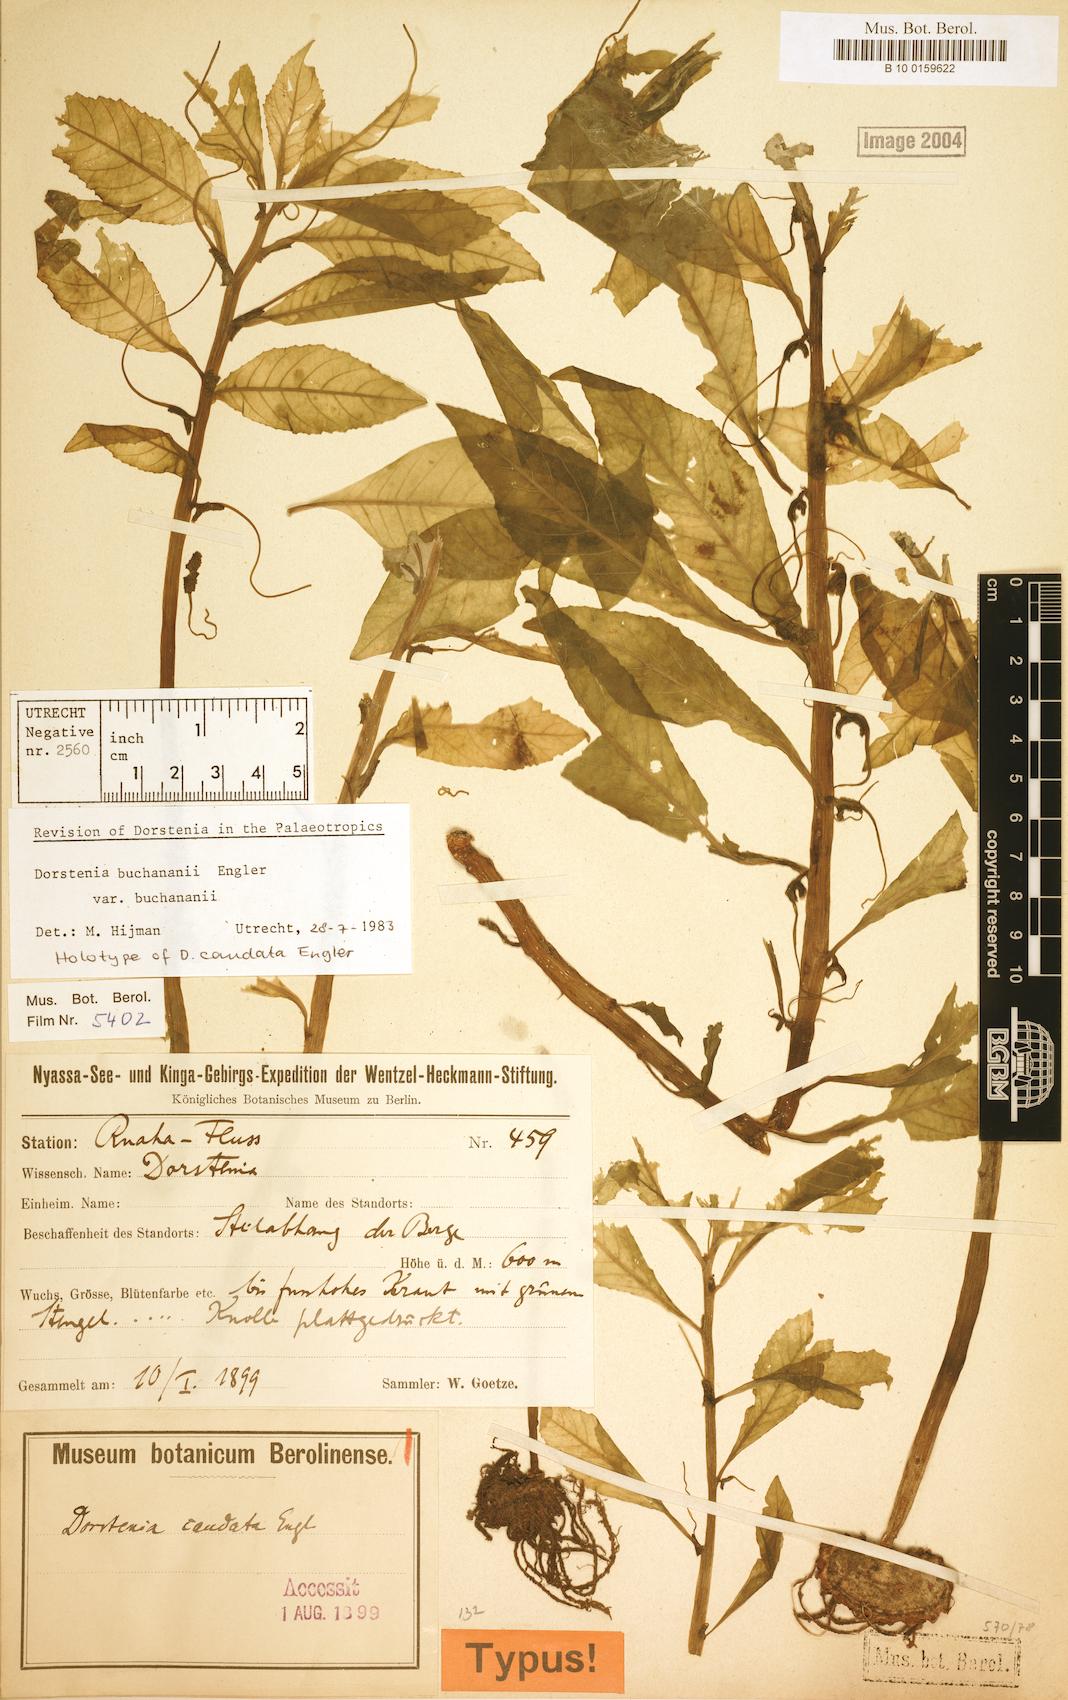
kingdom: Plantae
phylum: Tracheophyta
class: Magnoliopsida
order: Rosales
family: Moraceae
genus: Dorstenia
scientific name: Dorstenia buchananii
